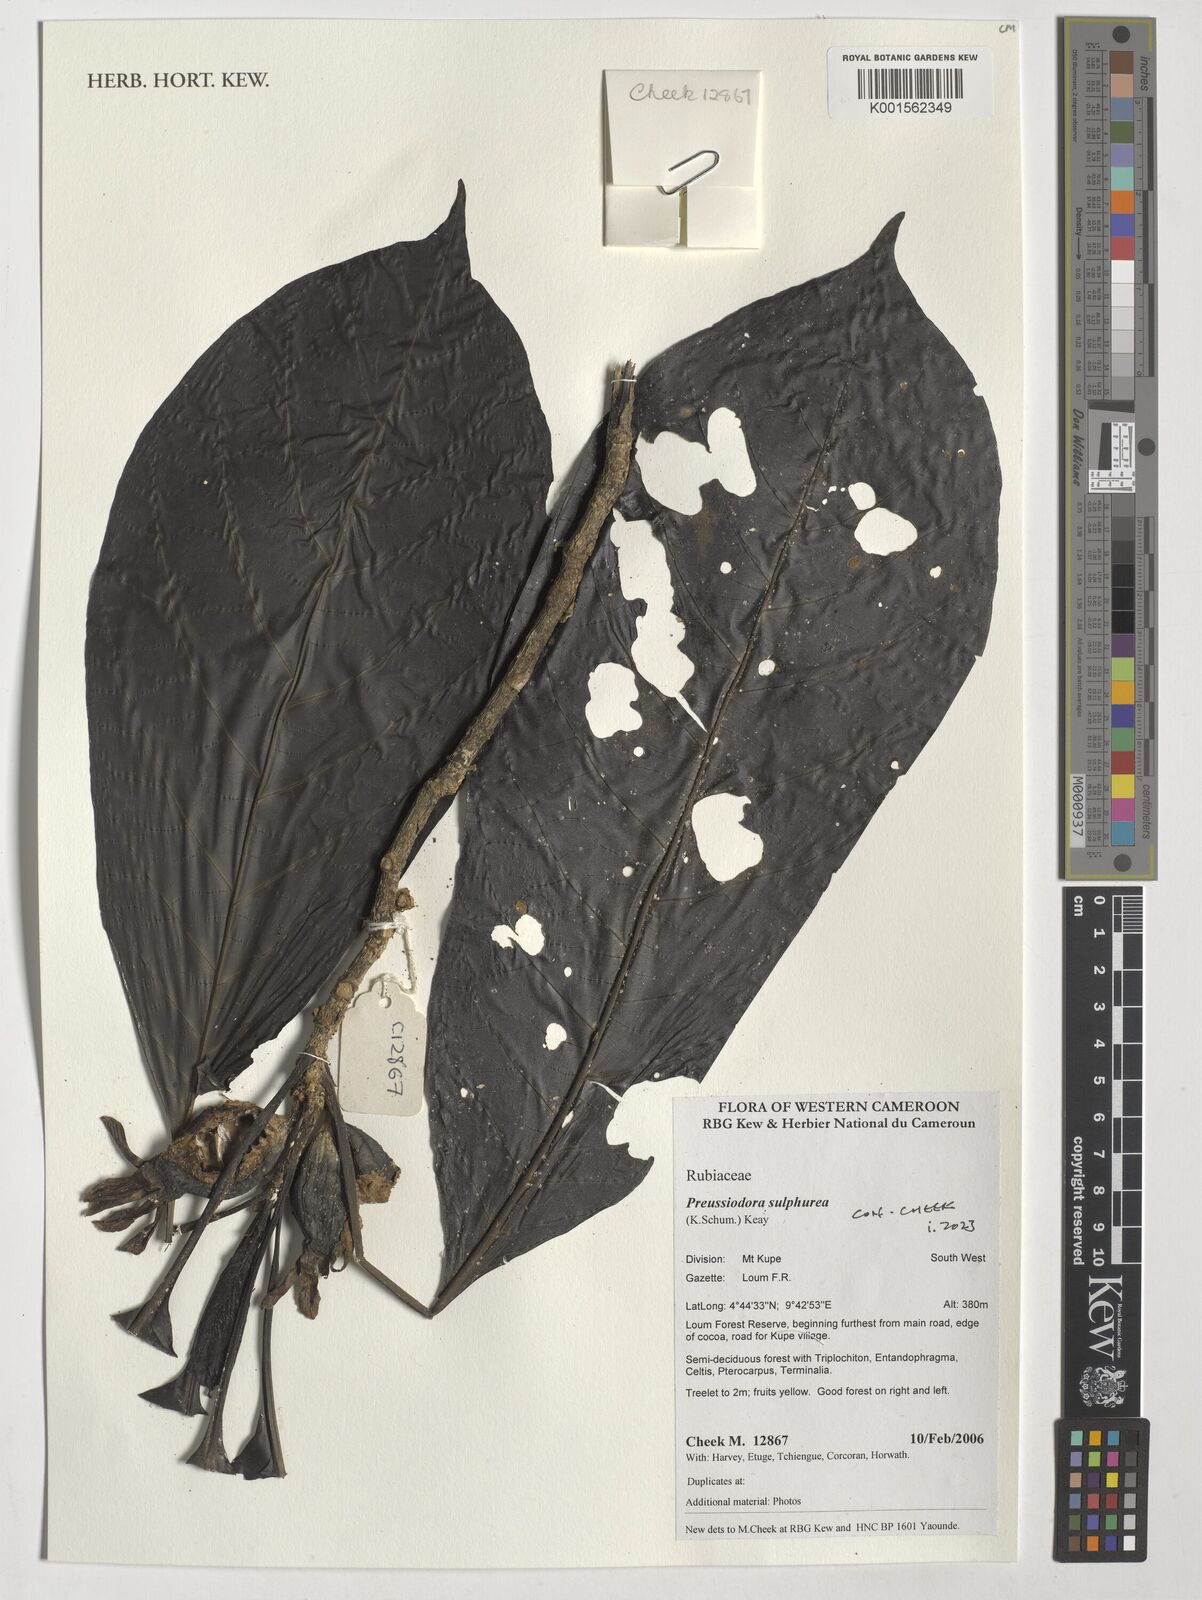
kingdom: Plantae
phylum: Tracheophyta
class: Magnoliopsida
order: Gentianales
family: Rubiaceae
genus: Preussiodora
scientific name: Preussiodora sulphurea
